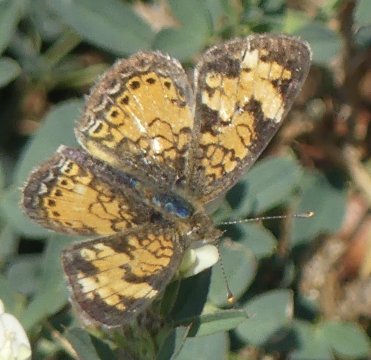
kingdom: Animalia
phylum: Arthropoda
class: Insecta
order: Lepidoptera
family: Nymphalidae
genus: Phyciodes
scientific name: Phyciodes
